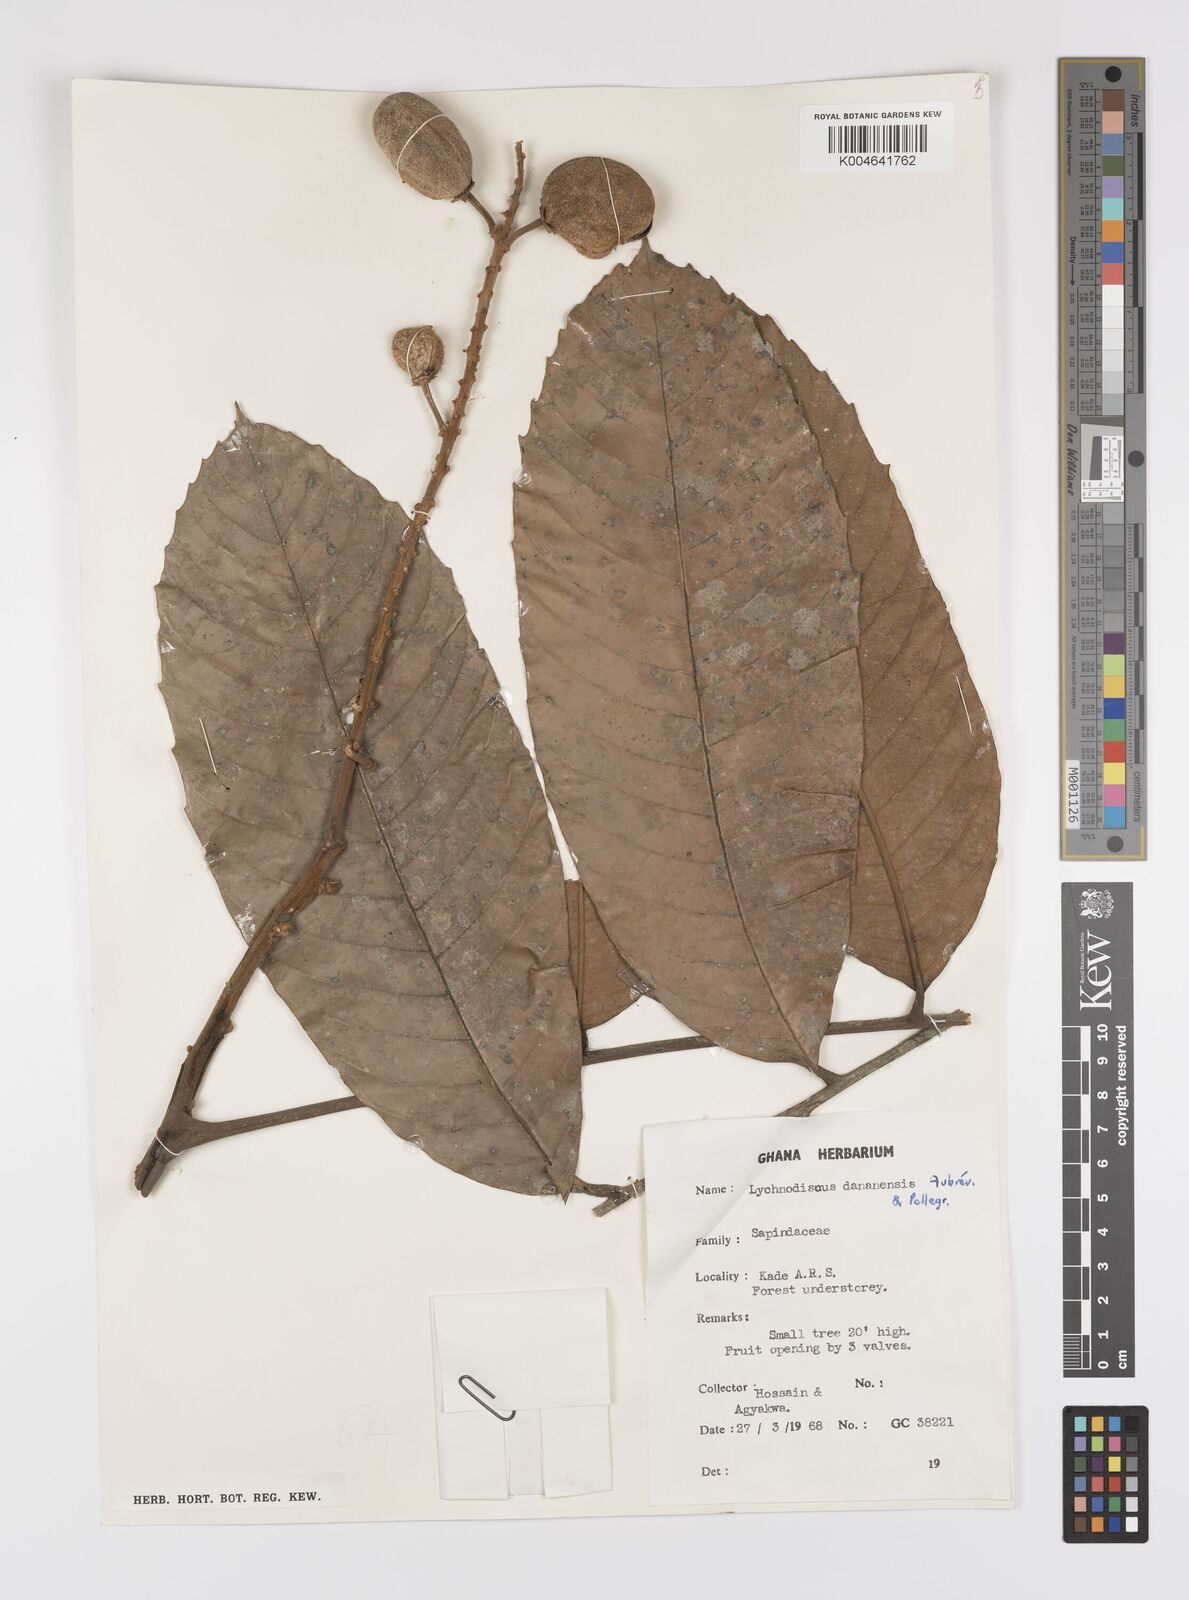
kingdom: Plantae
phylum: Tracheophyta
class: Magnoliopsida
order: Sapindales
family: Sapindaceae
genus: Lychnodiscus
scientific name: Lychnodiscus dananensis
